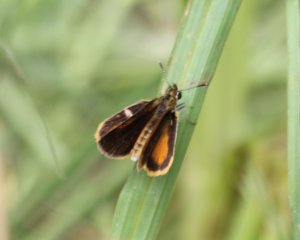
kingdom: Animalia
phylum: Arthropoda
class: Insecta
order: Lepidoptera
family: Hesperiidae
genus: Ancyloxypha
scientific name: Ancyloxypha numitor
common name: Least Skipper
